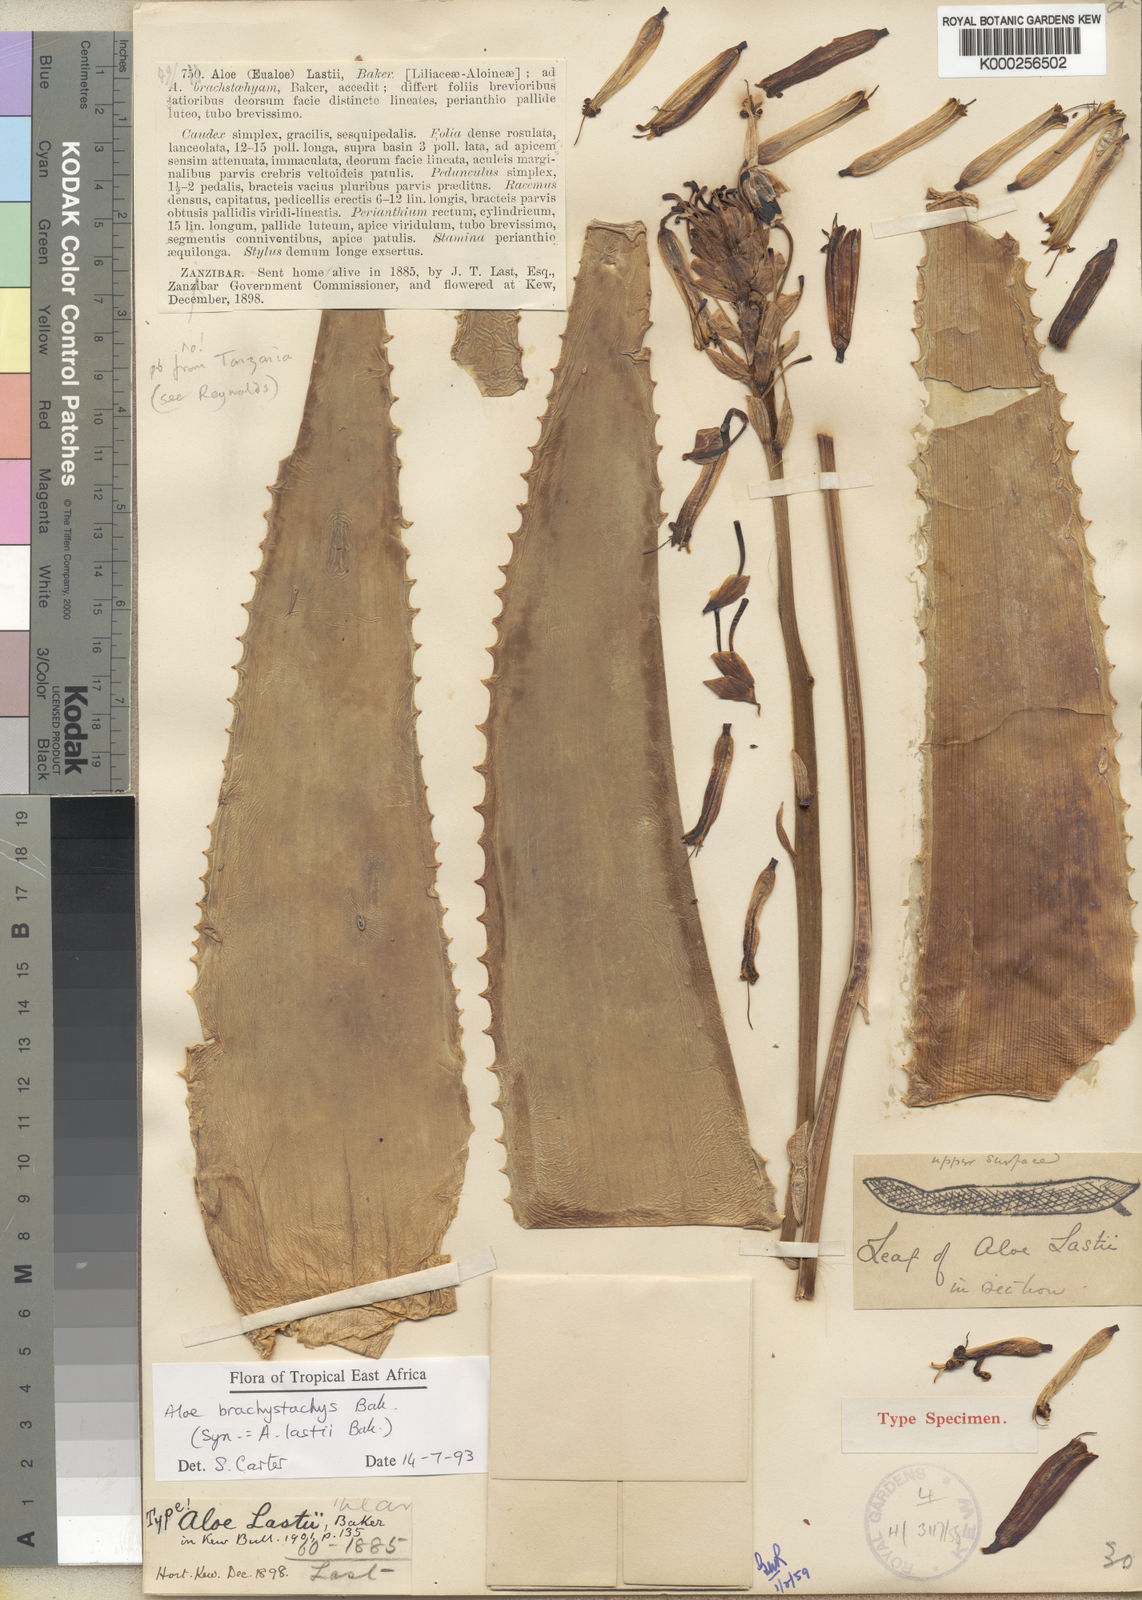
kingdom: Plantae
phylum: Tracheophyta
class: Liliopsida
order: Asparagales
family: Asphodelaceae
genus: Aloe
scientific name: Aloe brachystachys
